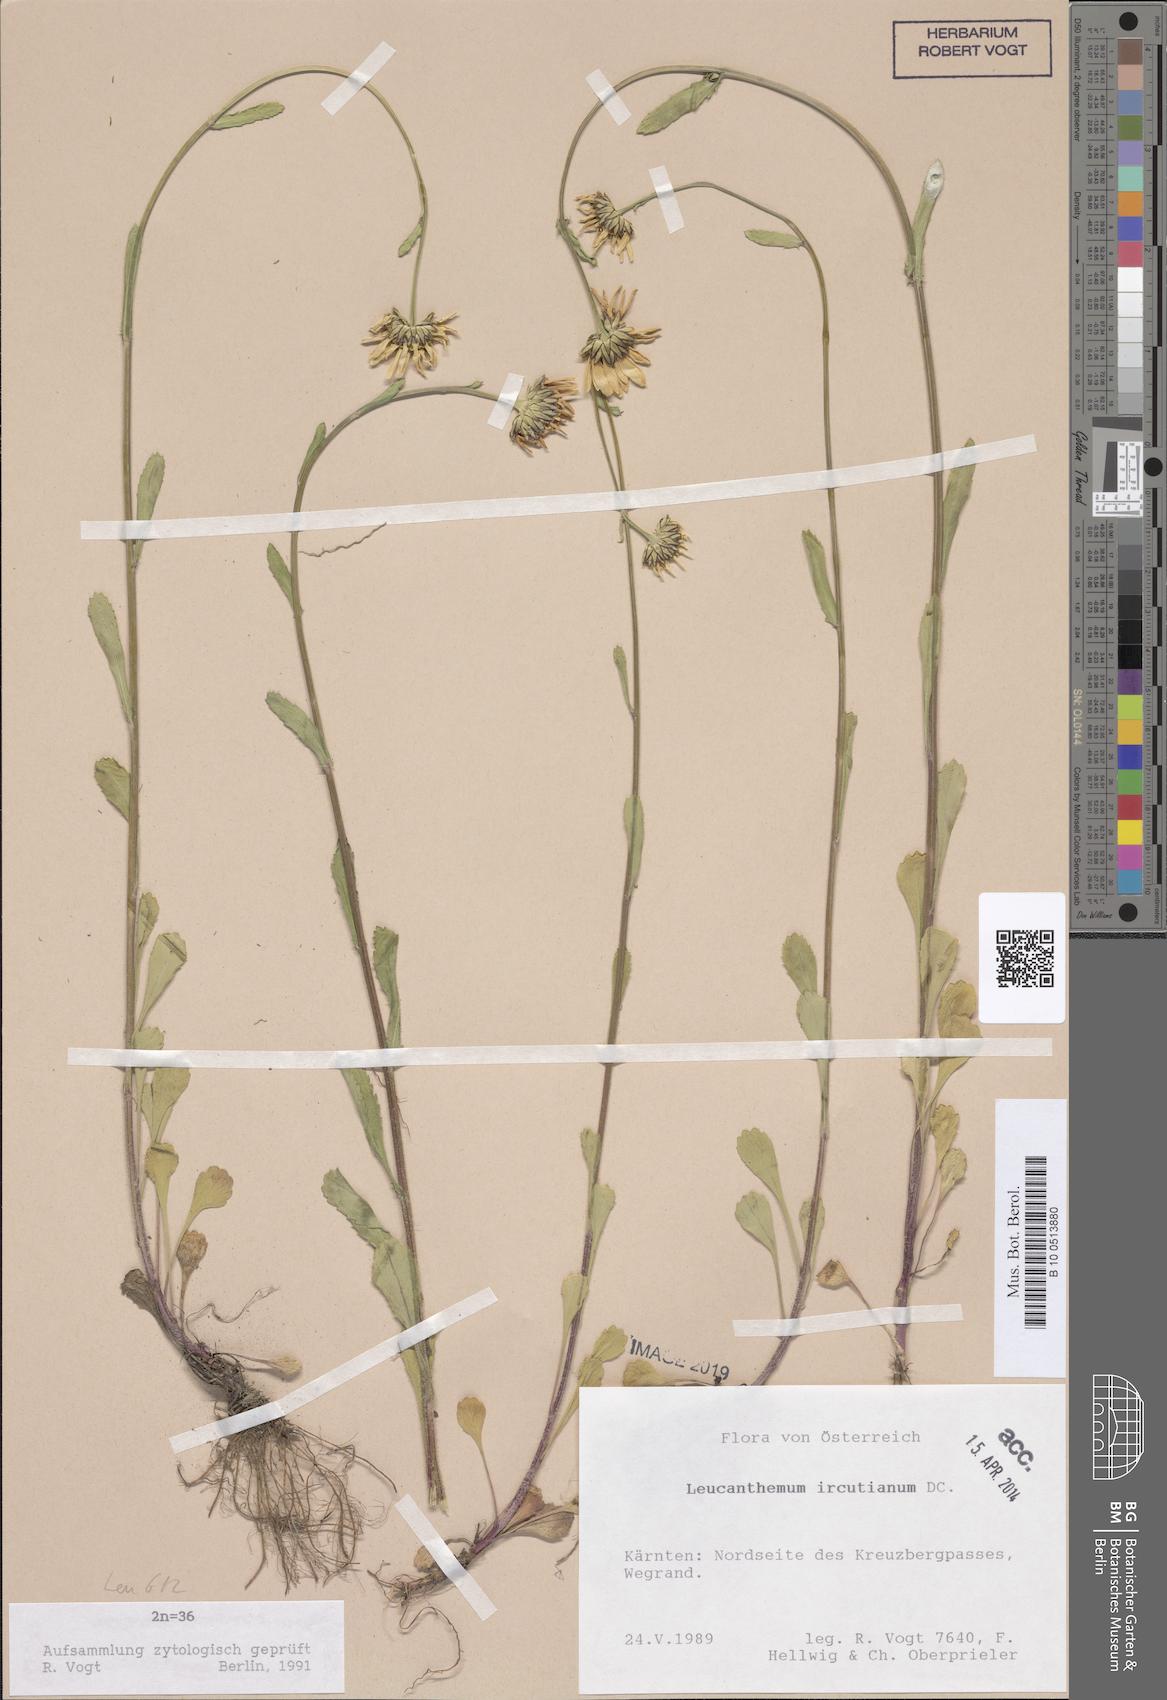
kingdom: Plantae
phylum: Tracheophyta
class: Magnoliopsida
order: Asterales
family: Asteraceae
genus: Leucanthemum
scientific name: Leucanthemum ircutianum
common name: Daisy
